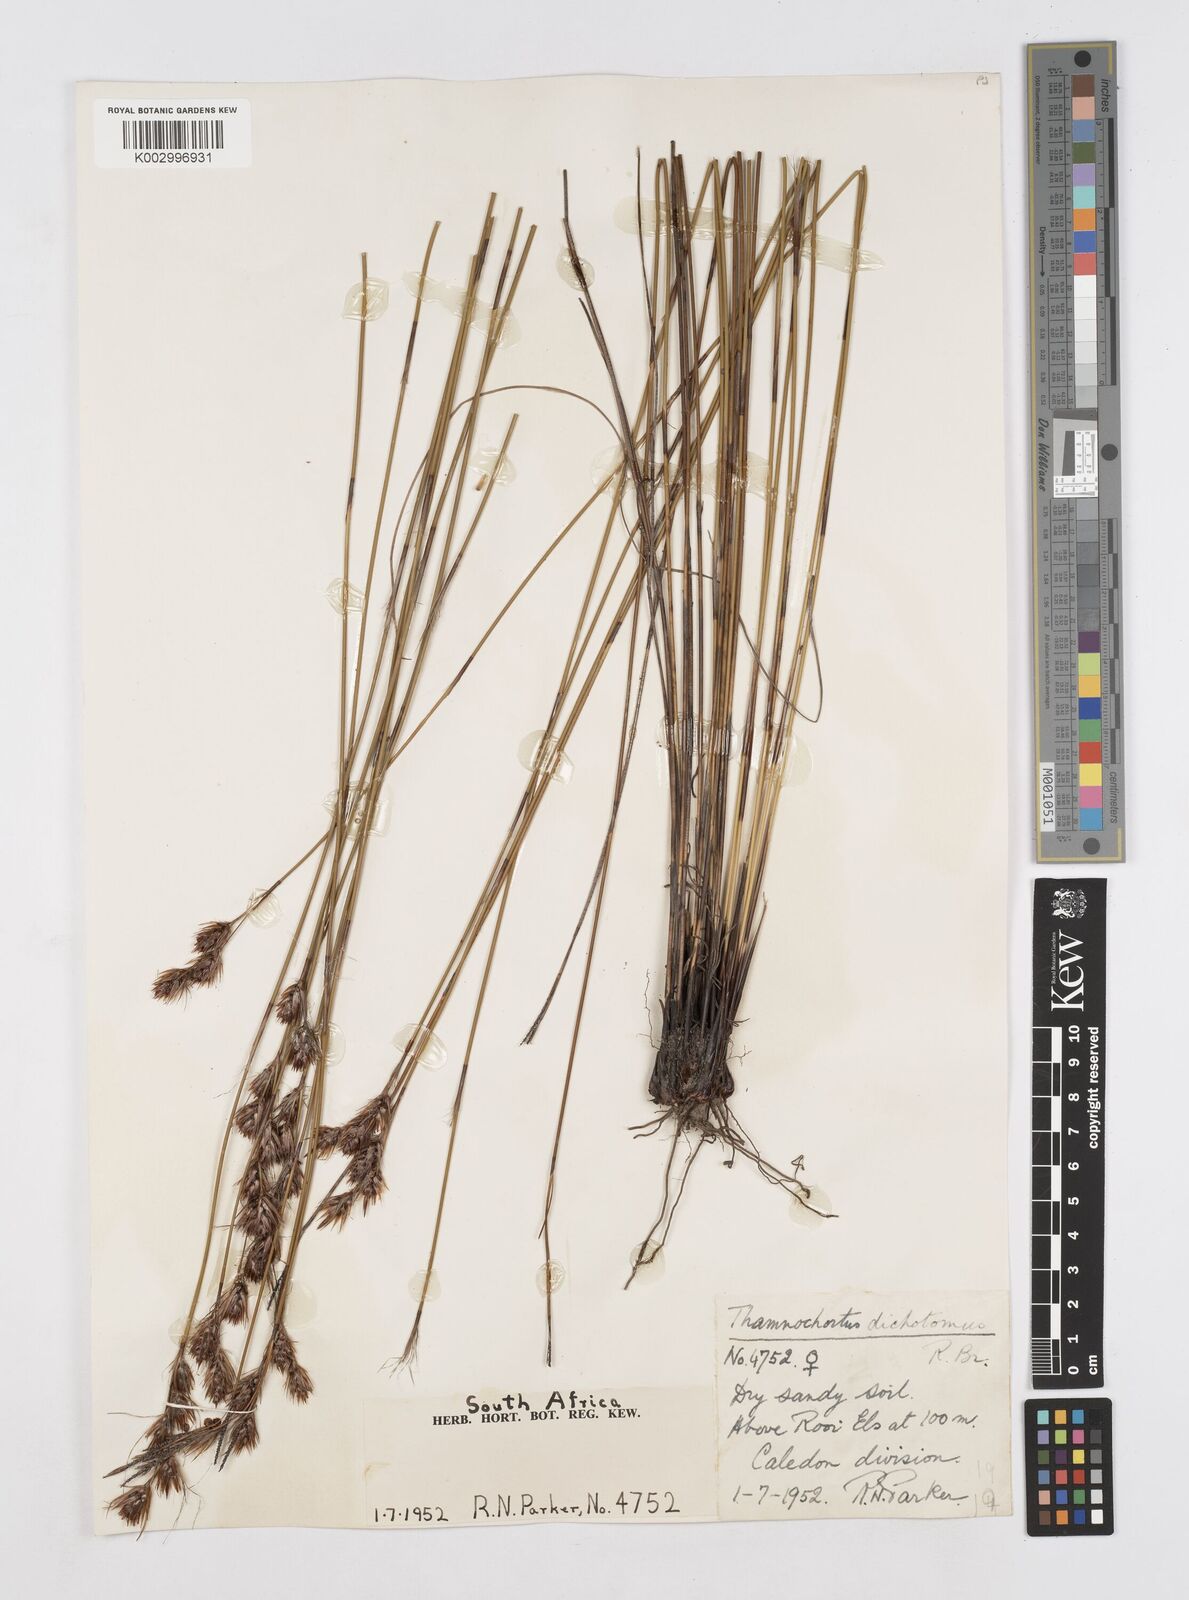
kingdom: Plantae
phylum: Tracheophyta
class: Liliopsida
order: Poales
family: Restionaceae
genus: Thamnochortus
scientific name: Thamnochortus lucens
